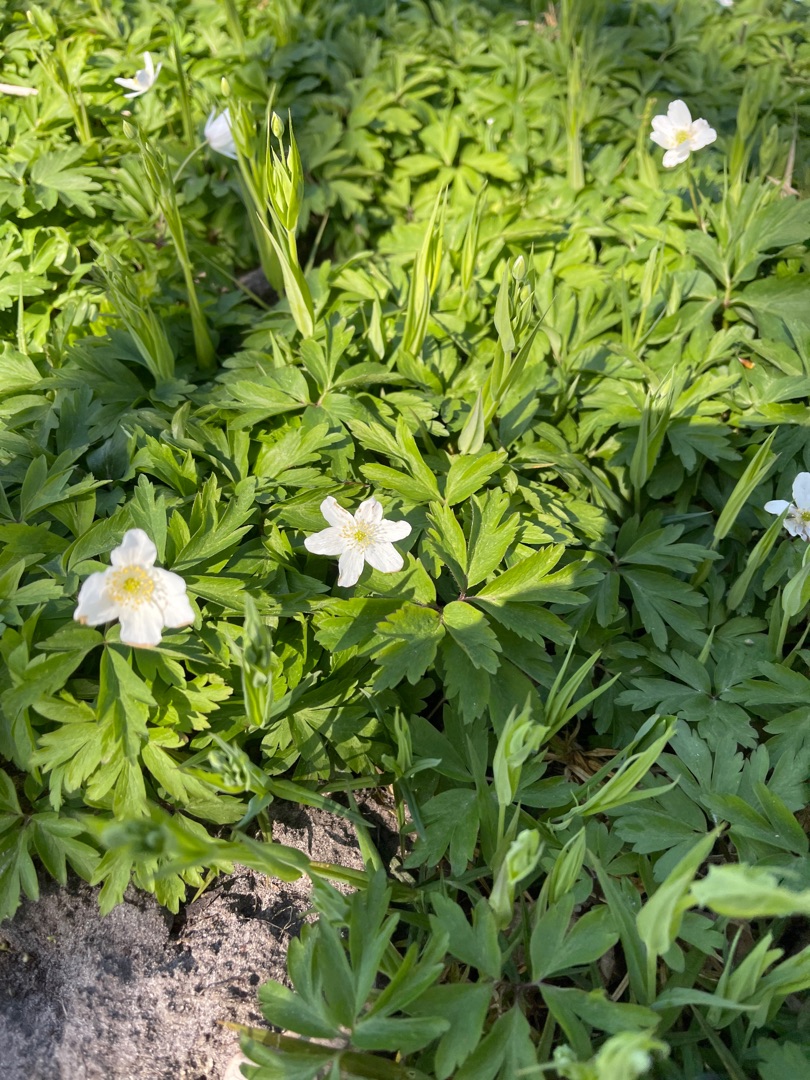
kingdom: Plantae
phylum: Tracheophyta
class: Magnoliopsida
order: Ranunculales
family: Ranunculaceae
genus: Anemone
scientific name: Anemone nemorosa
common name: Hvid anemone
